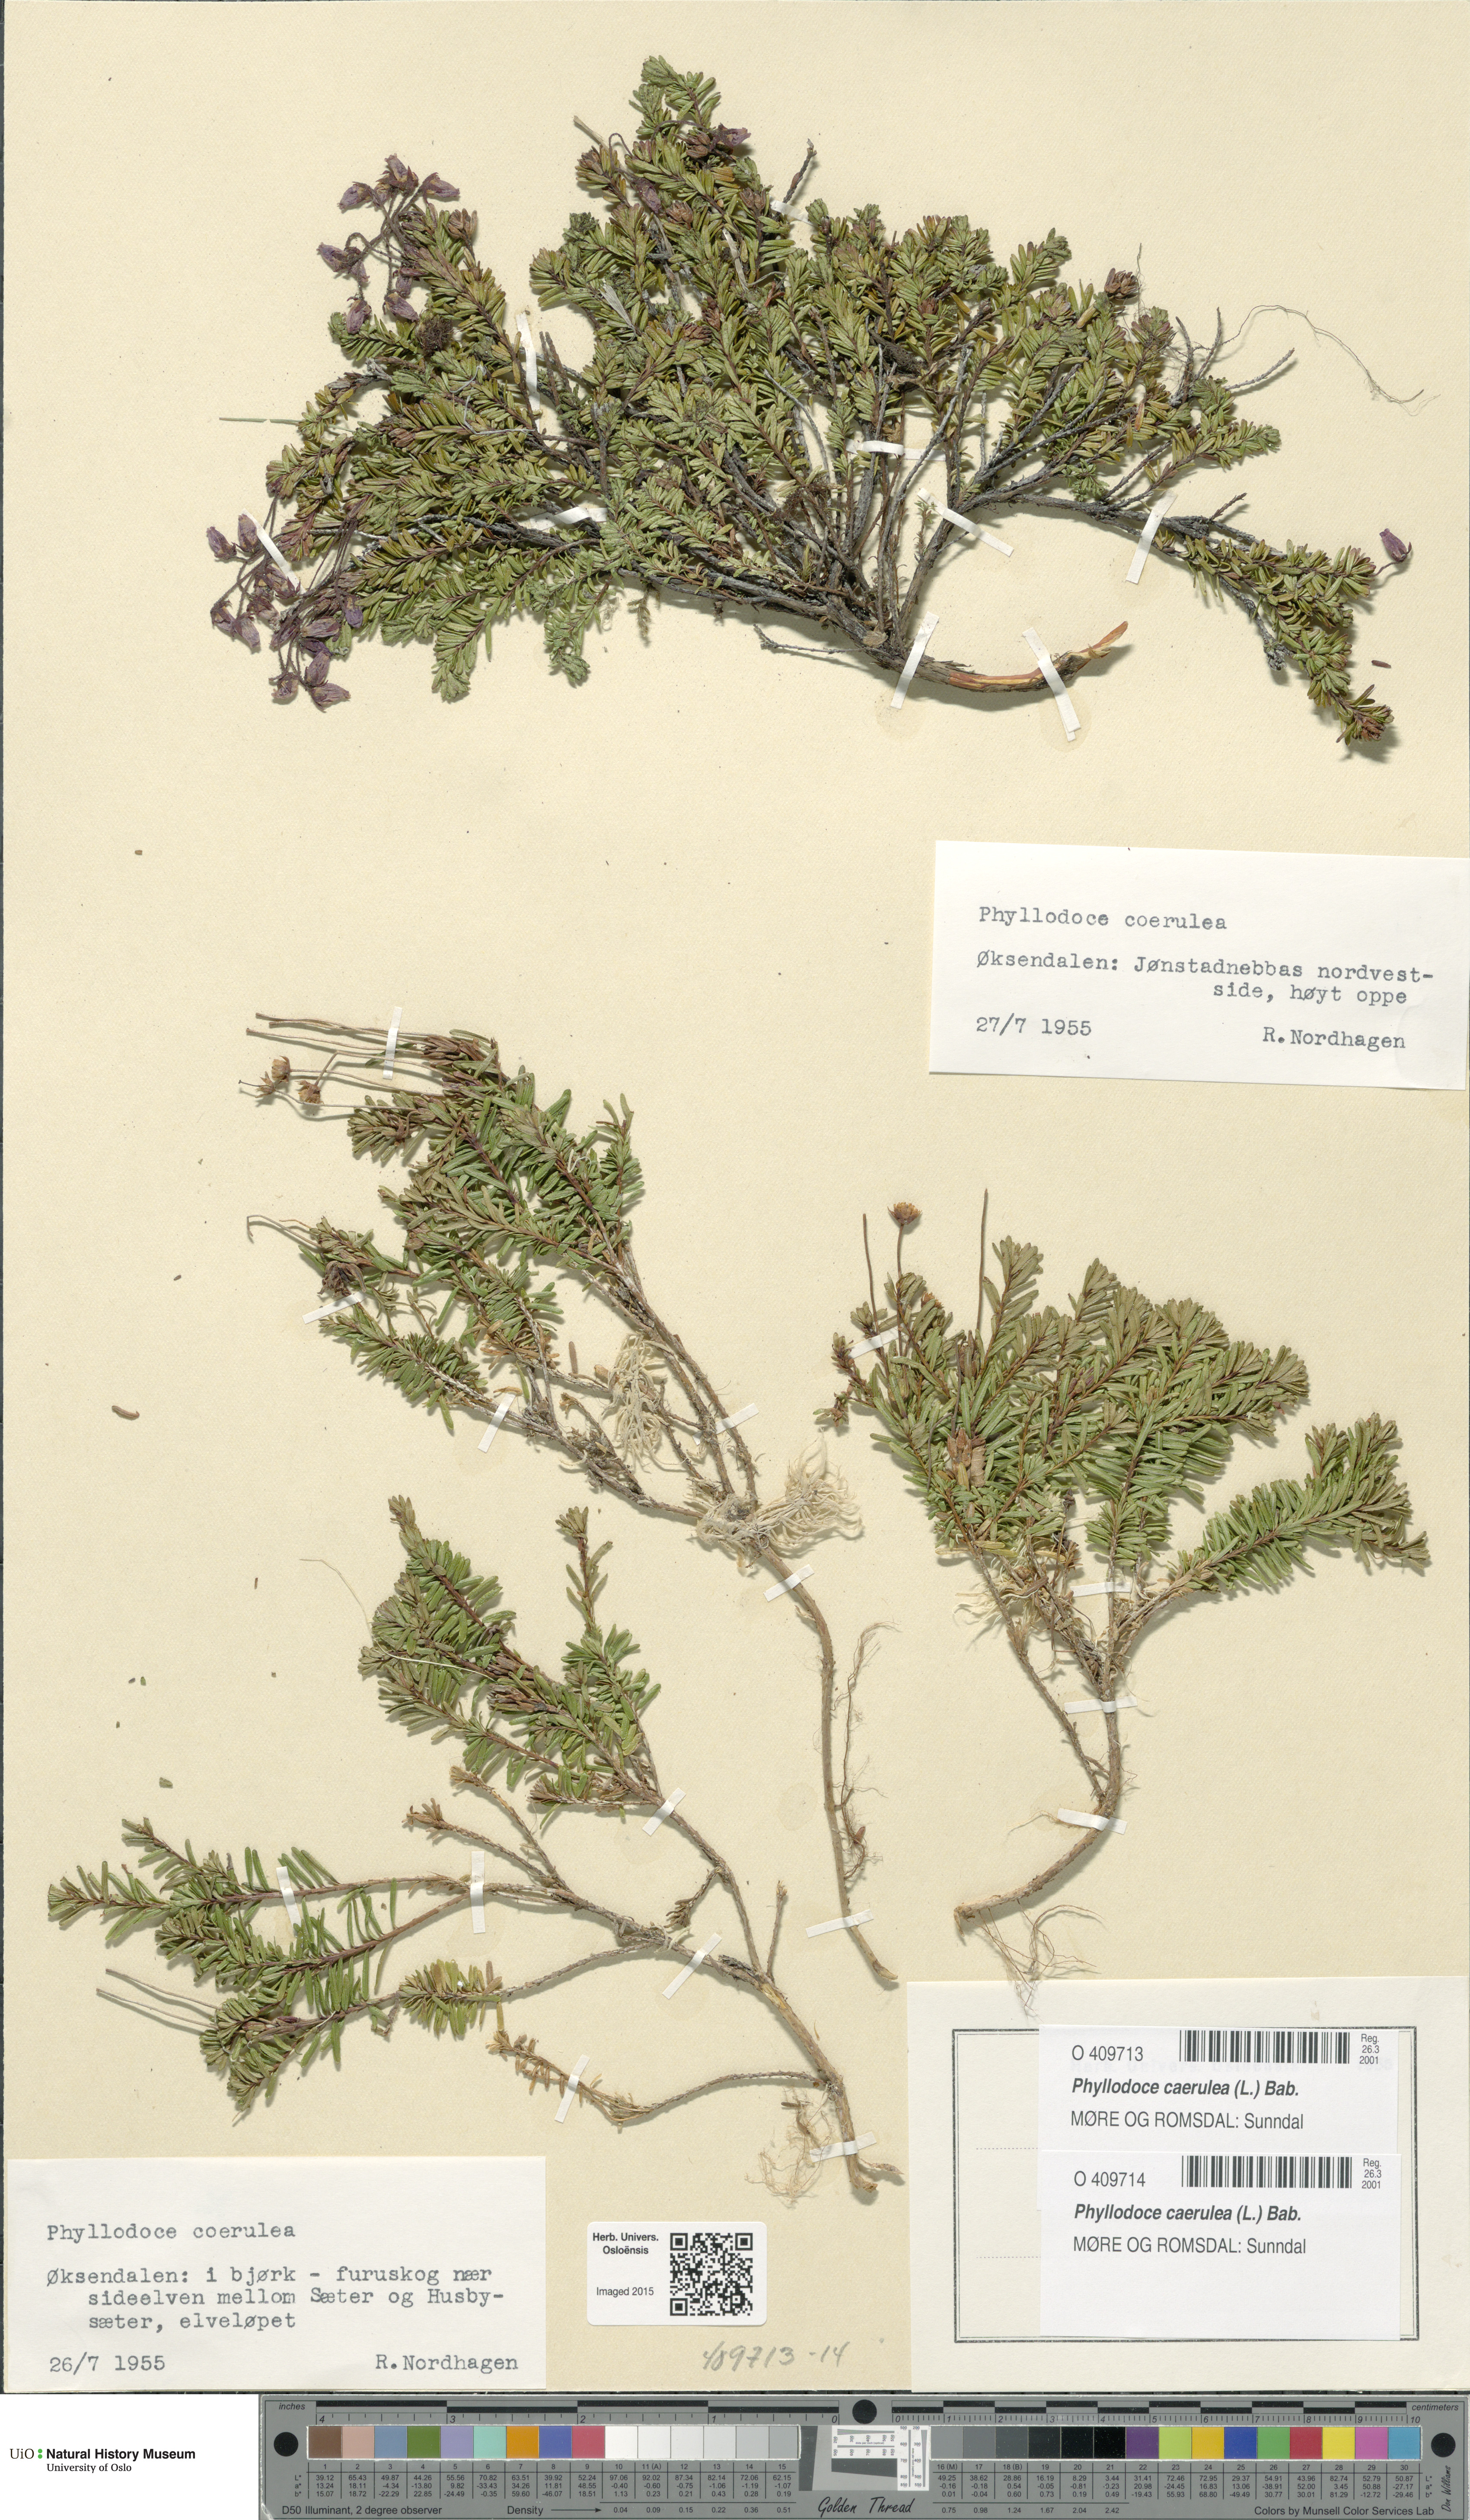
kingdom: Plantae
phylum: Tracheophyta
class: Magnoliopsida
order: Ericales
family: Ericaceae
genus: Phyllodoce
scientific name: Phyllodoce caerulea
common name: Blue heath
